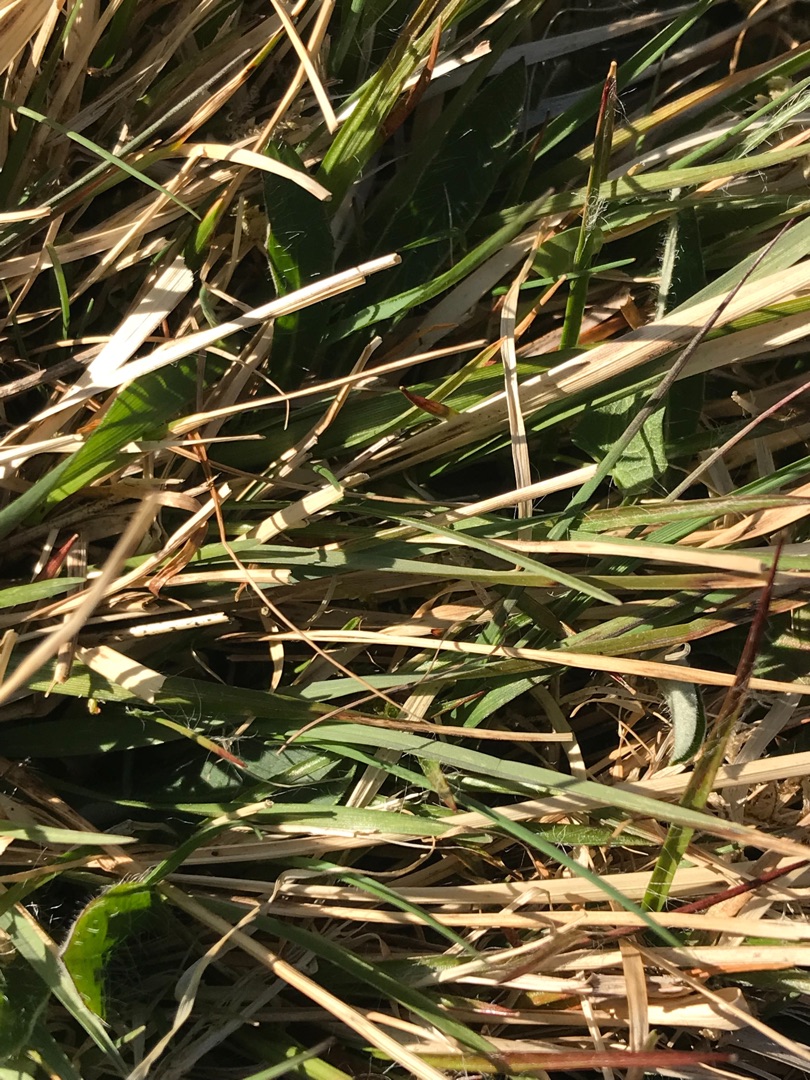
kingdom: Plantae
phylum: Tracheophyta
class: Liliopsida
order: Poales
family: Poaceae
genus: Danthonia
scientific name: Danthonia decumbens
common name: Tandbælg
